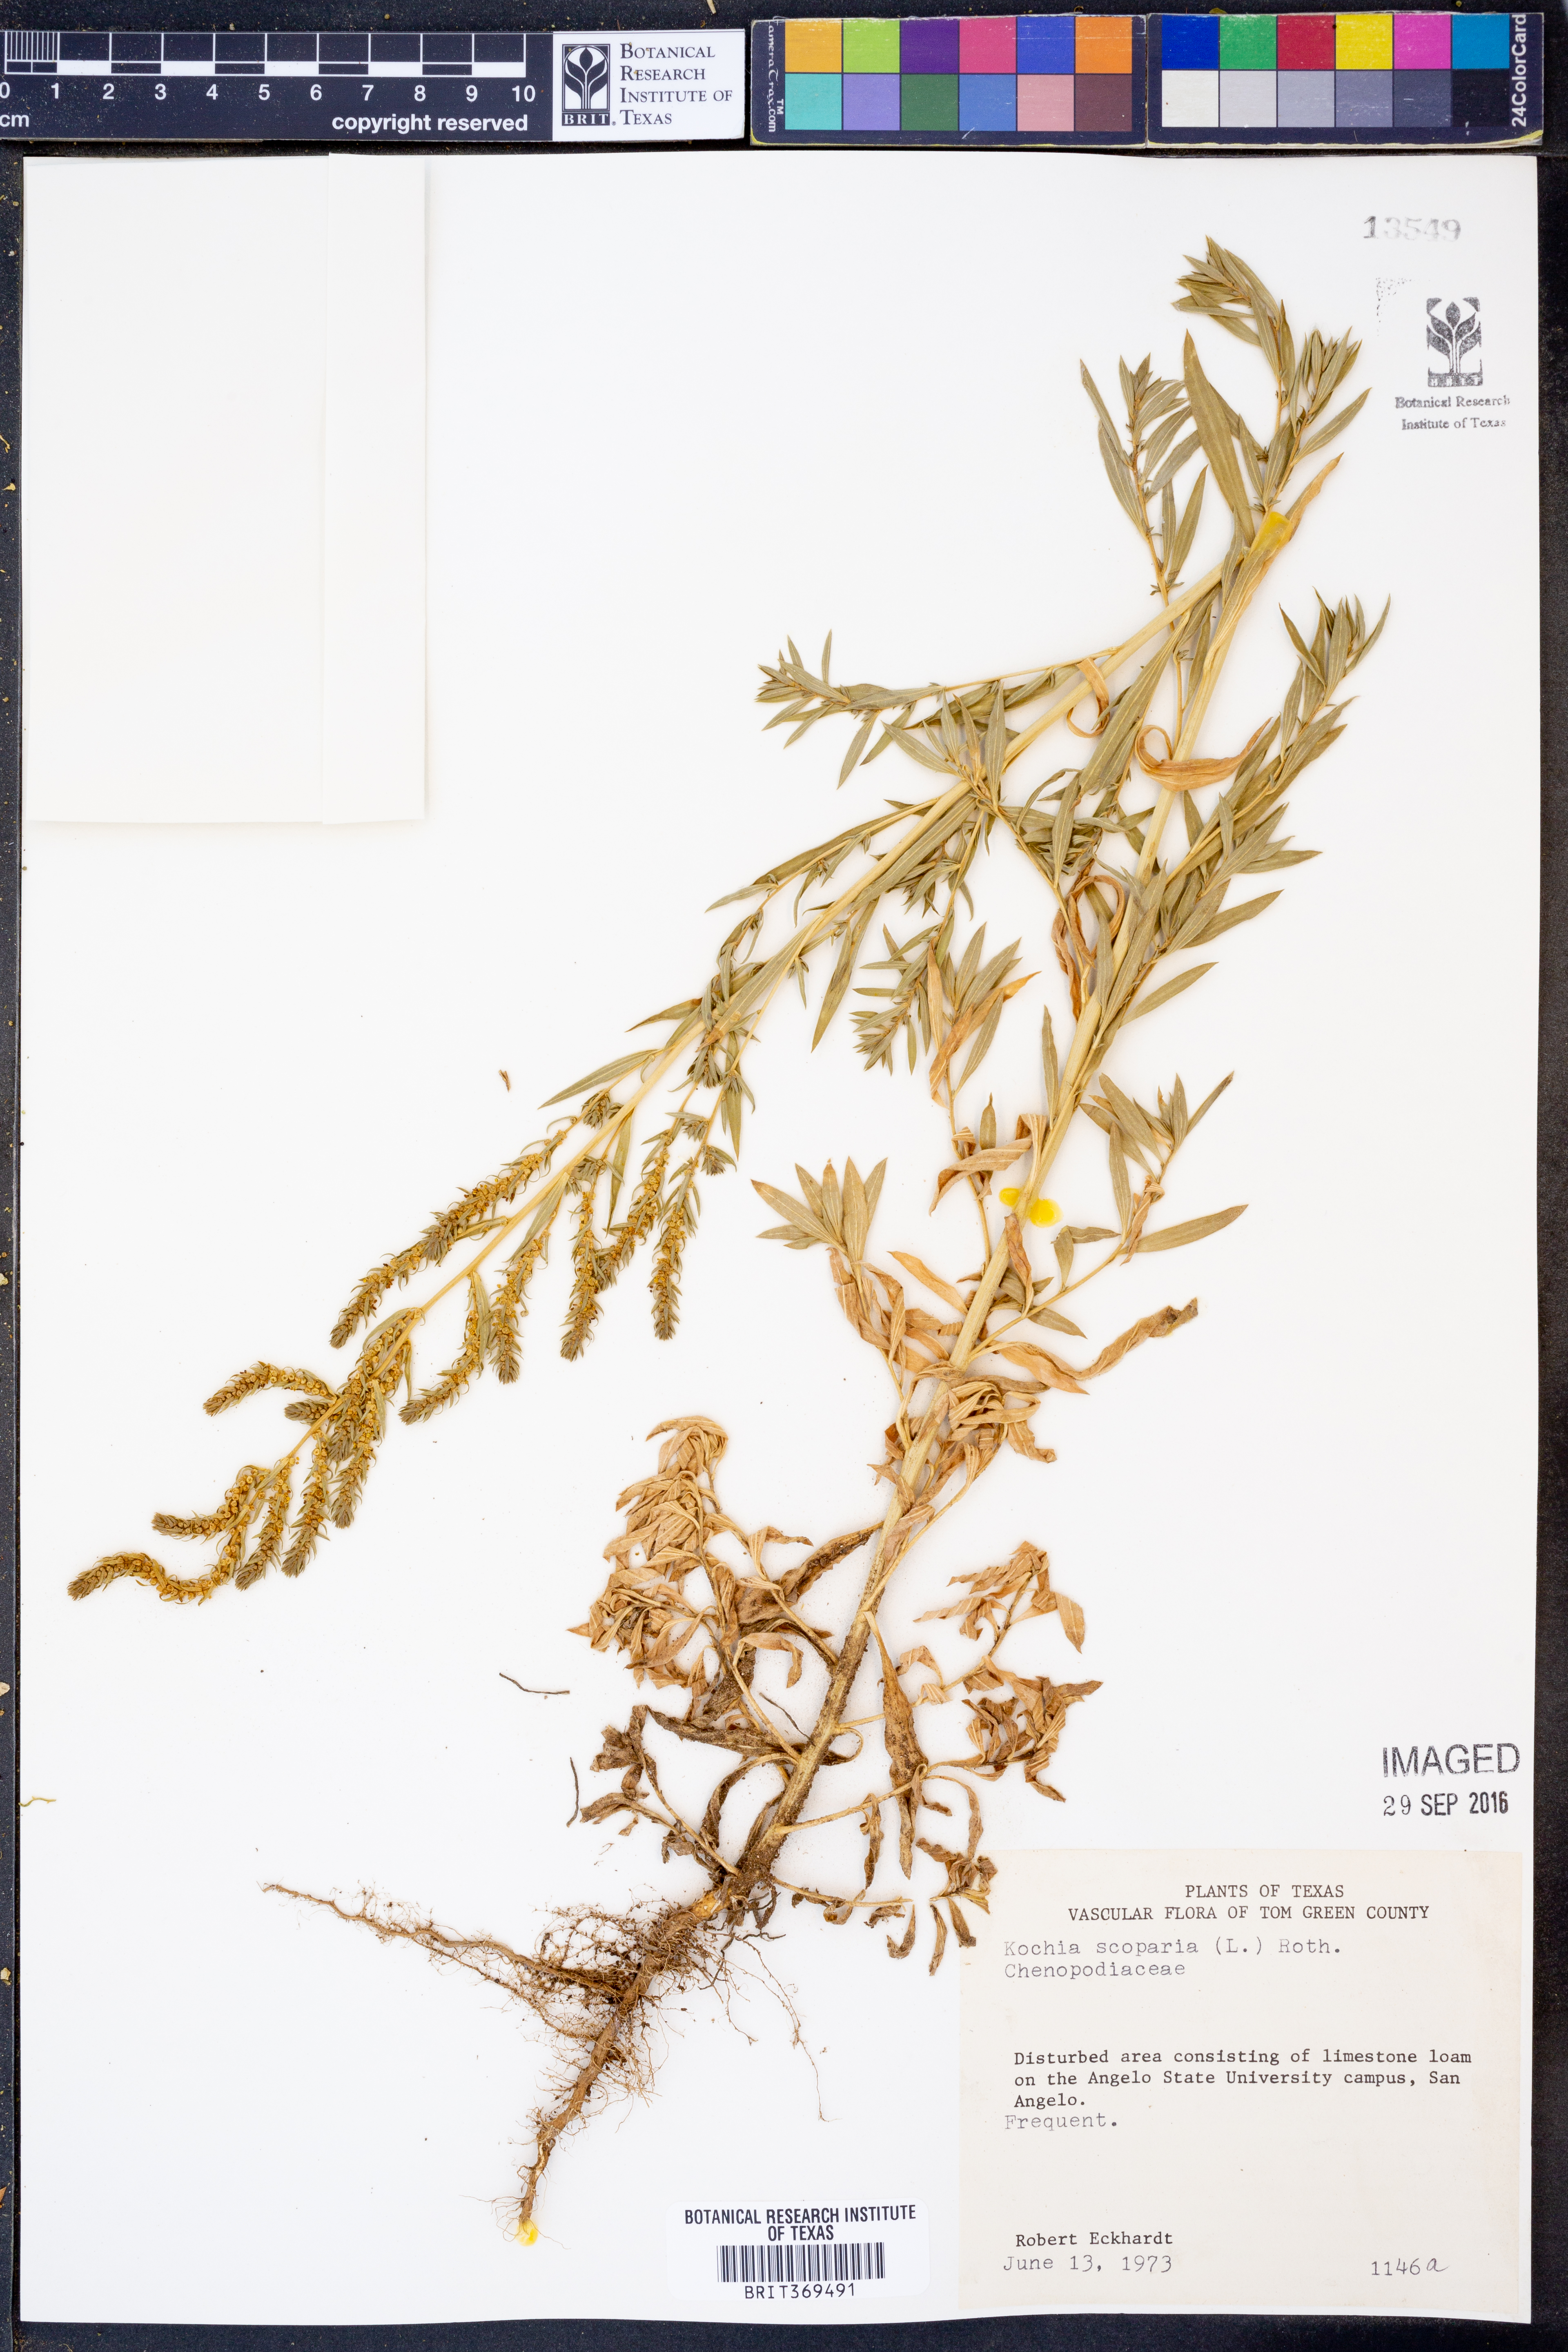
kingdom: Plantae
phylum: Tracheophyta
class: Magnoliopsida
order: Caryophyllales
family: Amaranthaceae
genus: Bassia
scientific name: Bassia scoparia
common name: Belvedere
